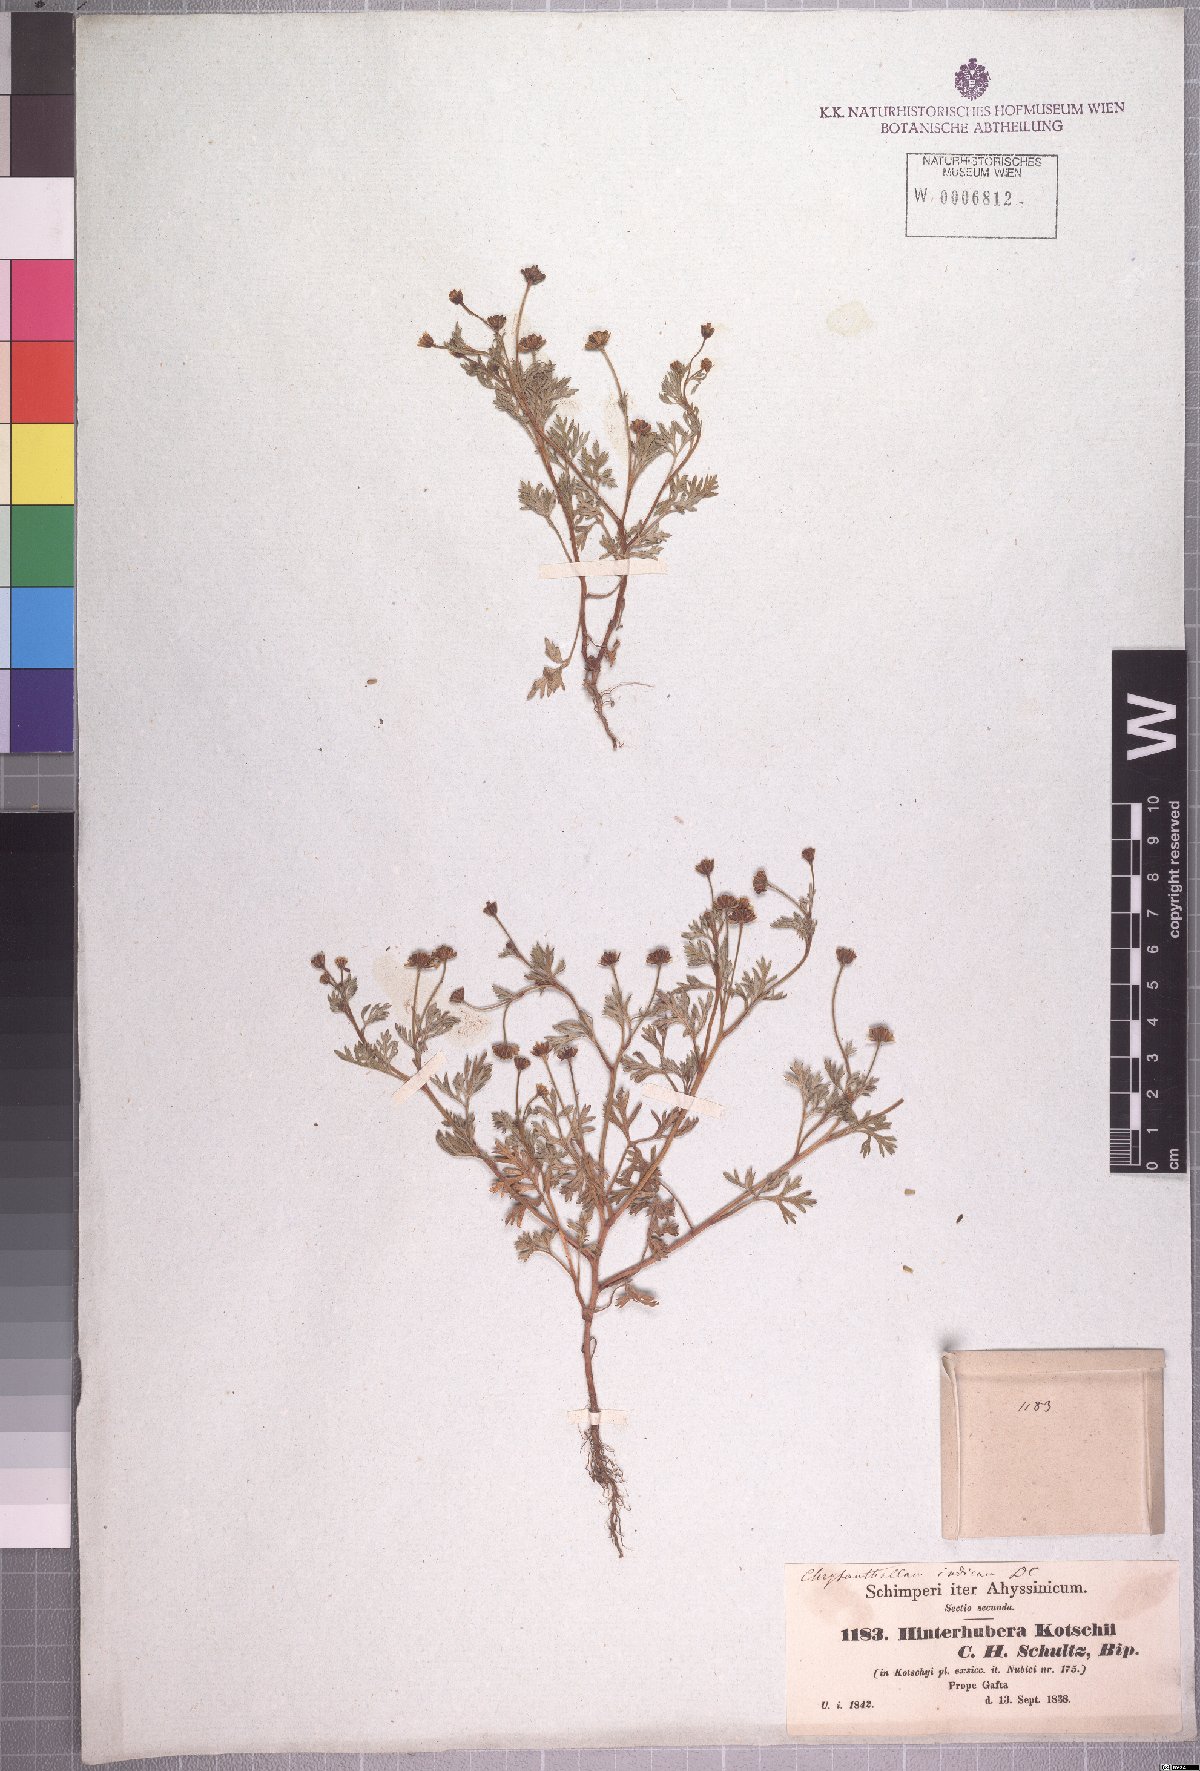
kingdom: Plantae
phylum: Tracheophyta
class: Magnoliopsida
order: Asterales
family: Asteraceae
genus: Chrysanthellum
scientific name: Chrysanthellum indicum
